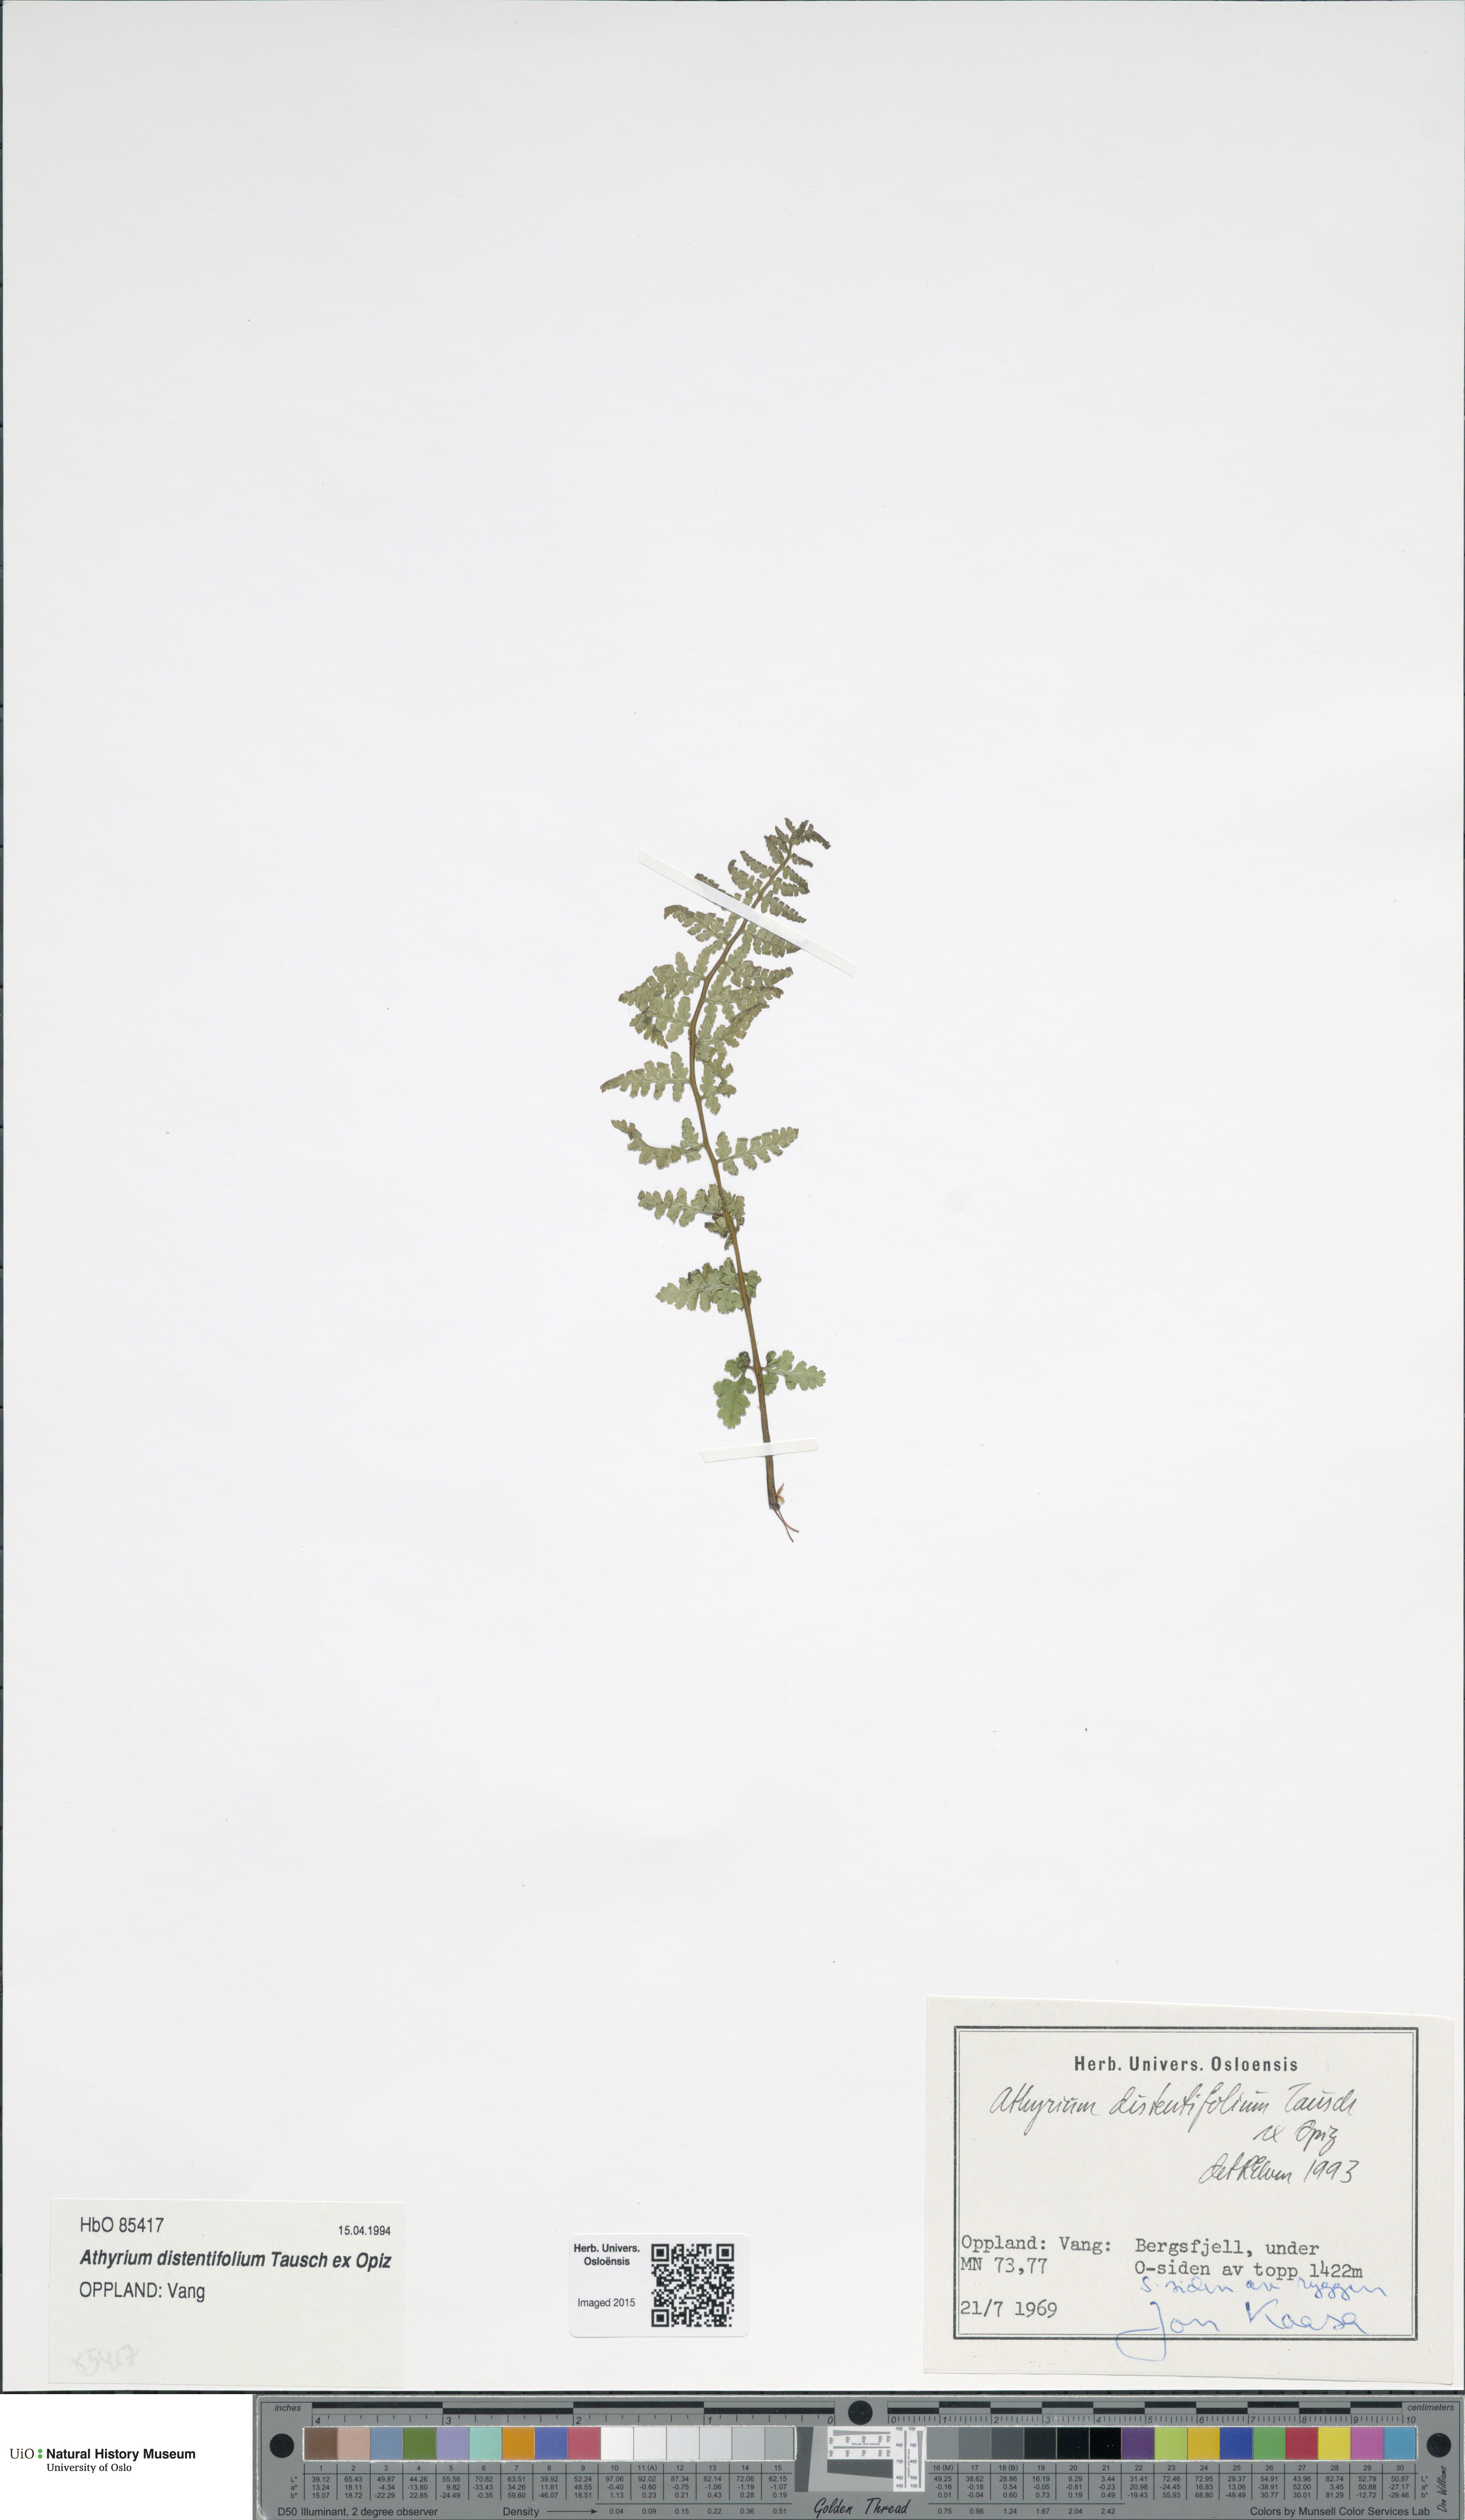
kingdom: Plantae
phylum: Tracheophyta
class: Polypodiopsida
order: Polypodiales
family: Athyriaceae
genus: Pseudathyrium
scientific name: Pseudathyrium alpestre
